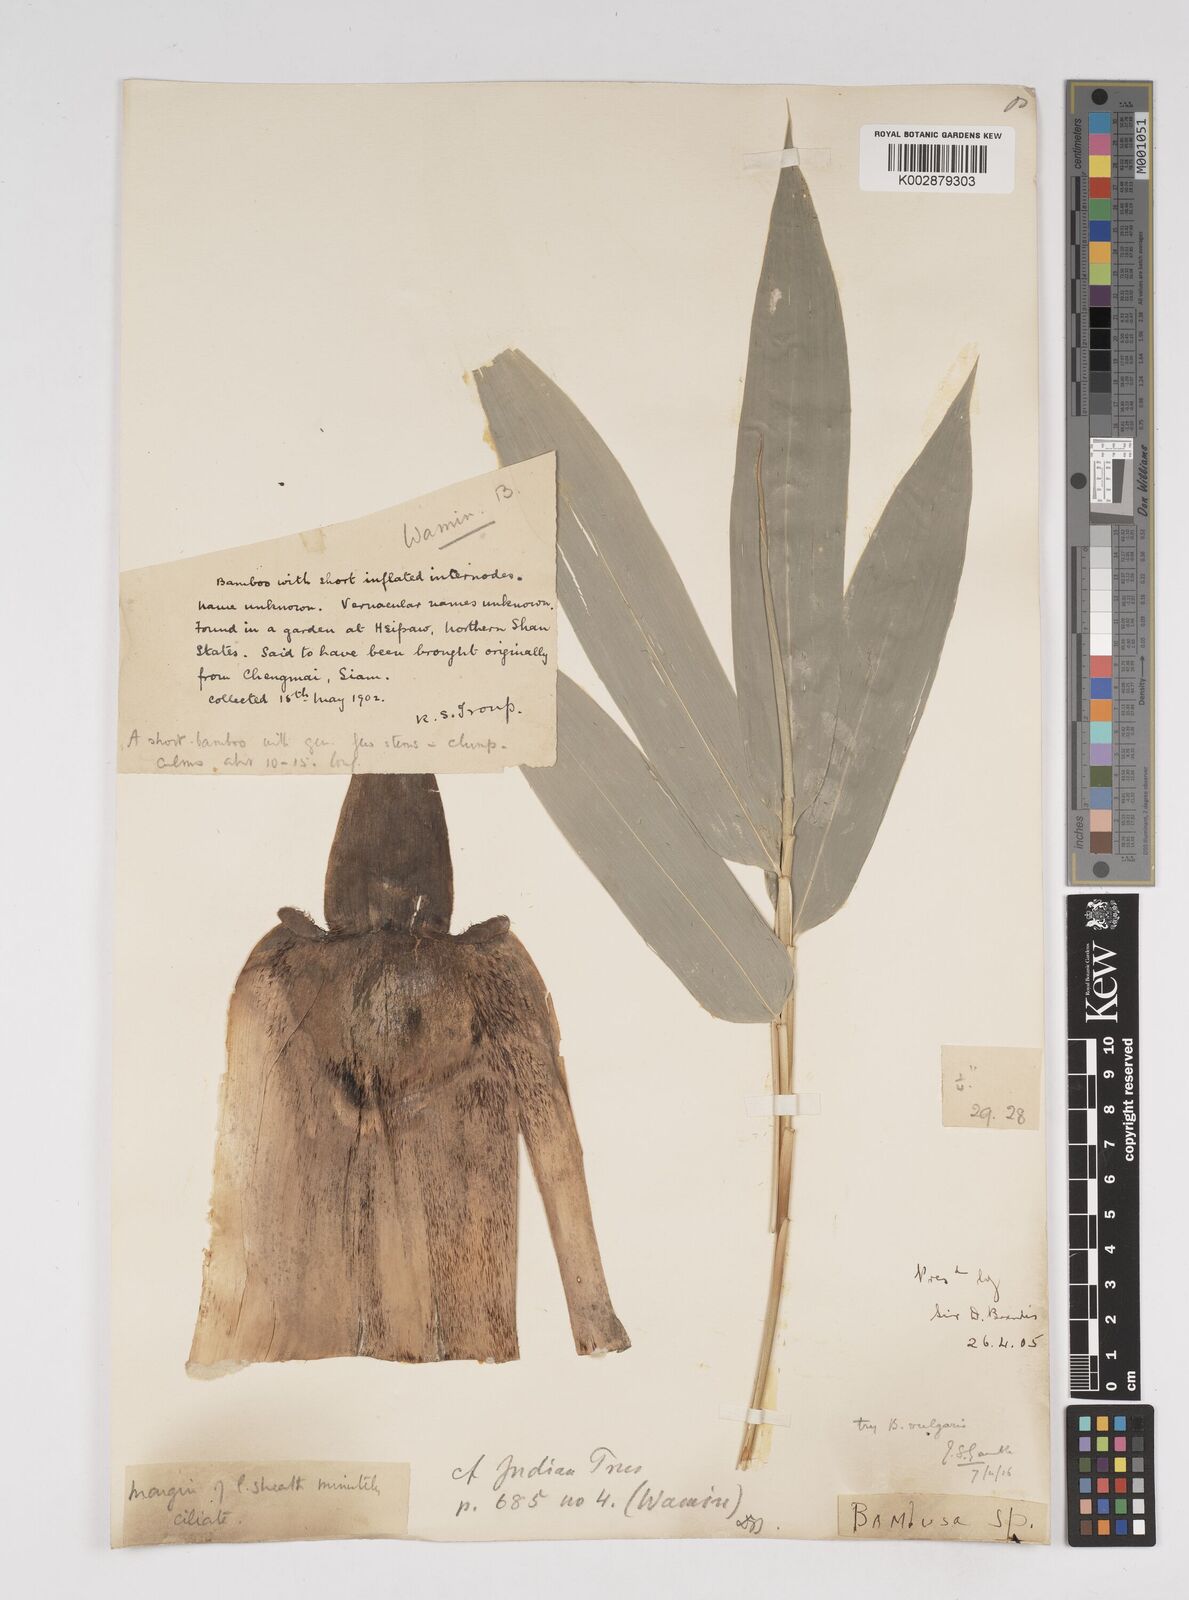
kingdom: Plantae
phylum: Tracheophyta
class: Liliopsida
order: Poales
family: Poaceae
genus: Dendrocalamus
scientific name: Dendrocalamus
